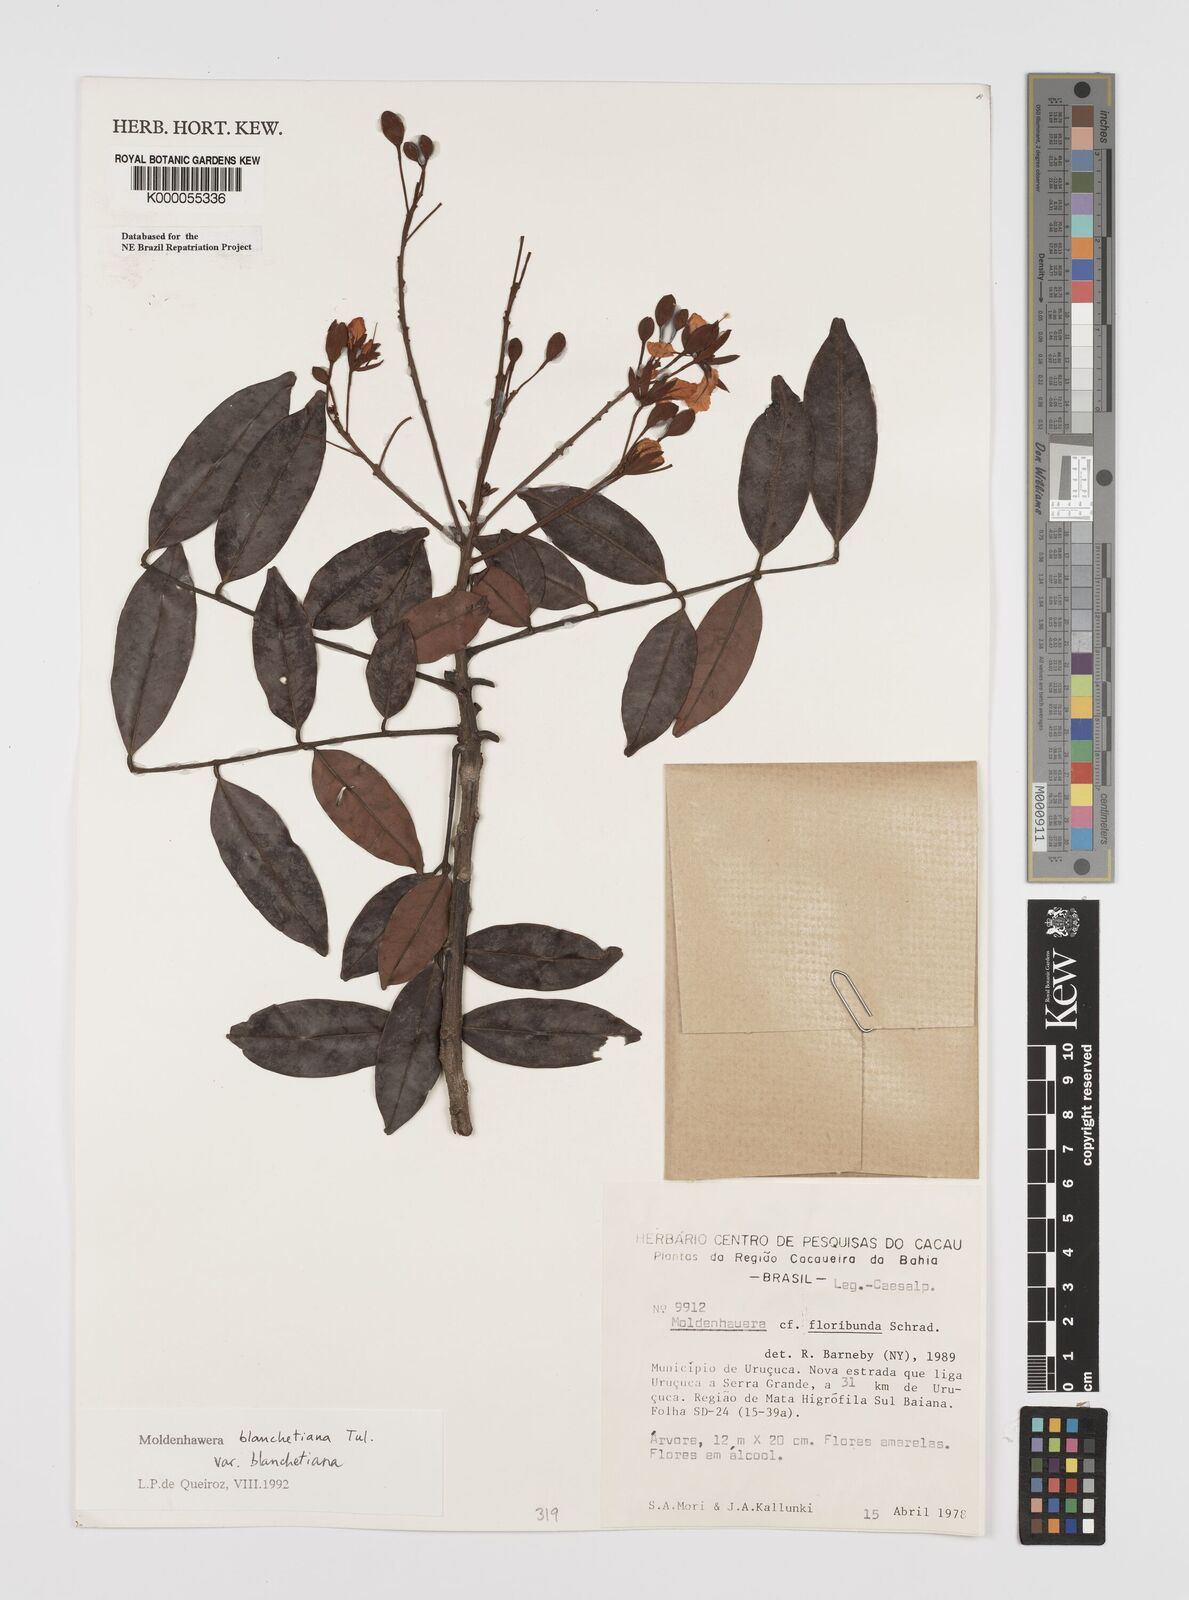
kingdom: Plantae
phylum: Tracheophyta
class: Magnoliopsida
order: Fabales
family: Fabaceae
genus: Moldenhawera
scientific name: Moldenhawera blanchetiana
